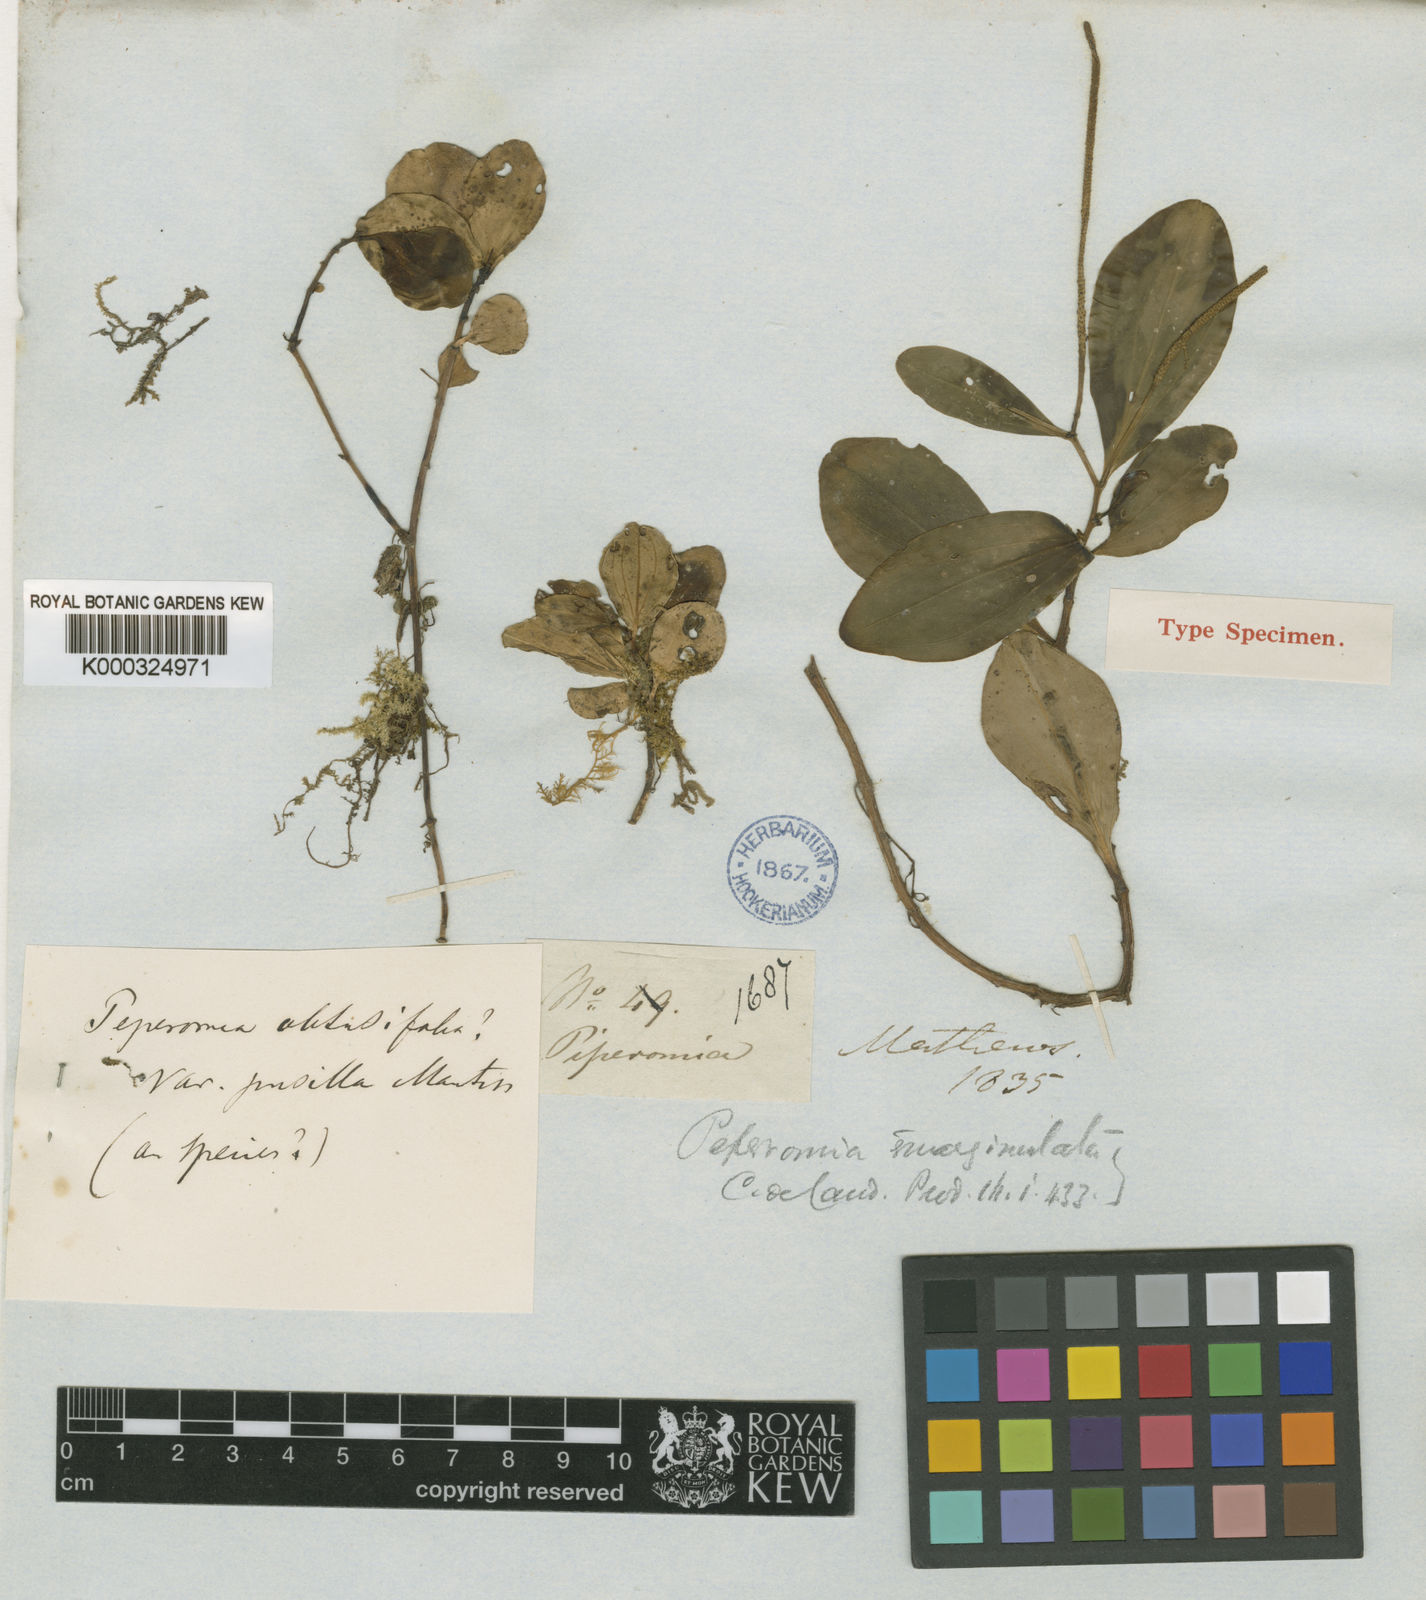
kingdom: Plantae
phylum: Tracheophyta
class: Magnoliopsida
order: Piperales
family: Piperaceae
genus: Peperomia
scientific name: Peperomia emarginata
